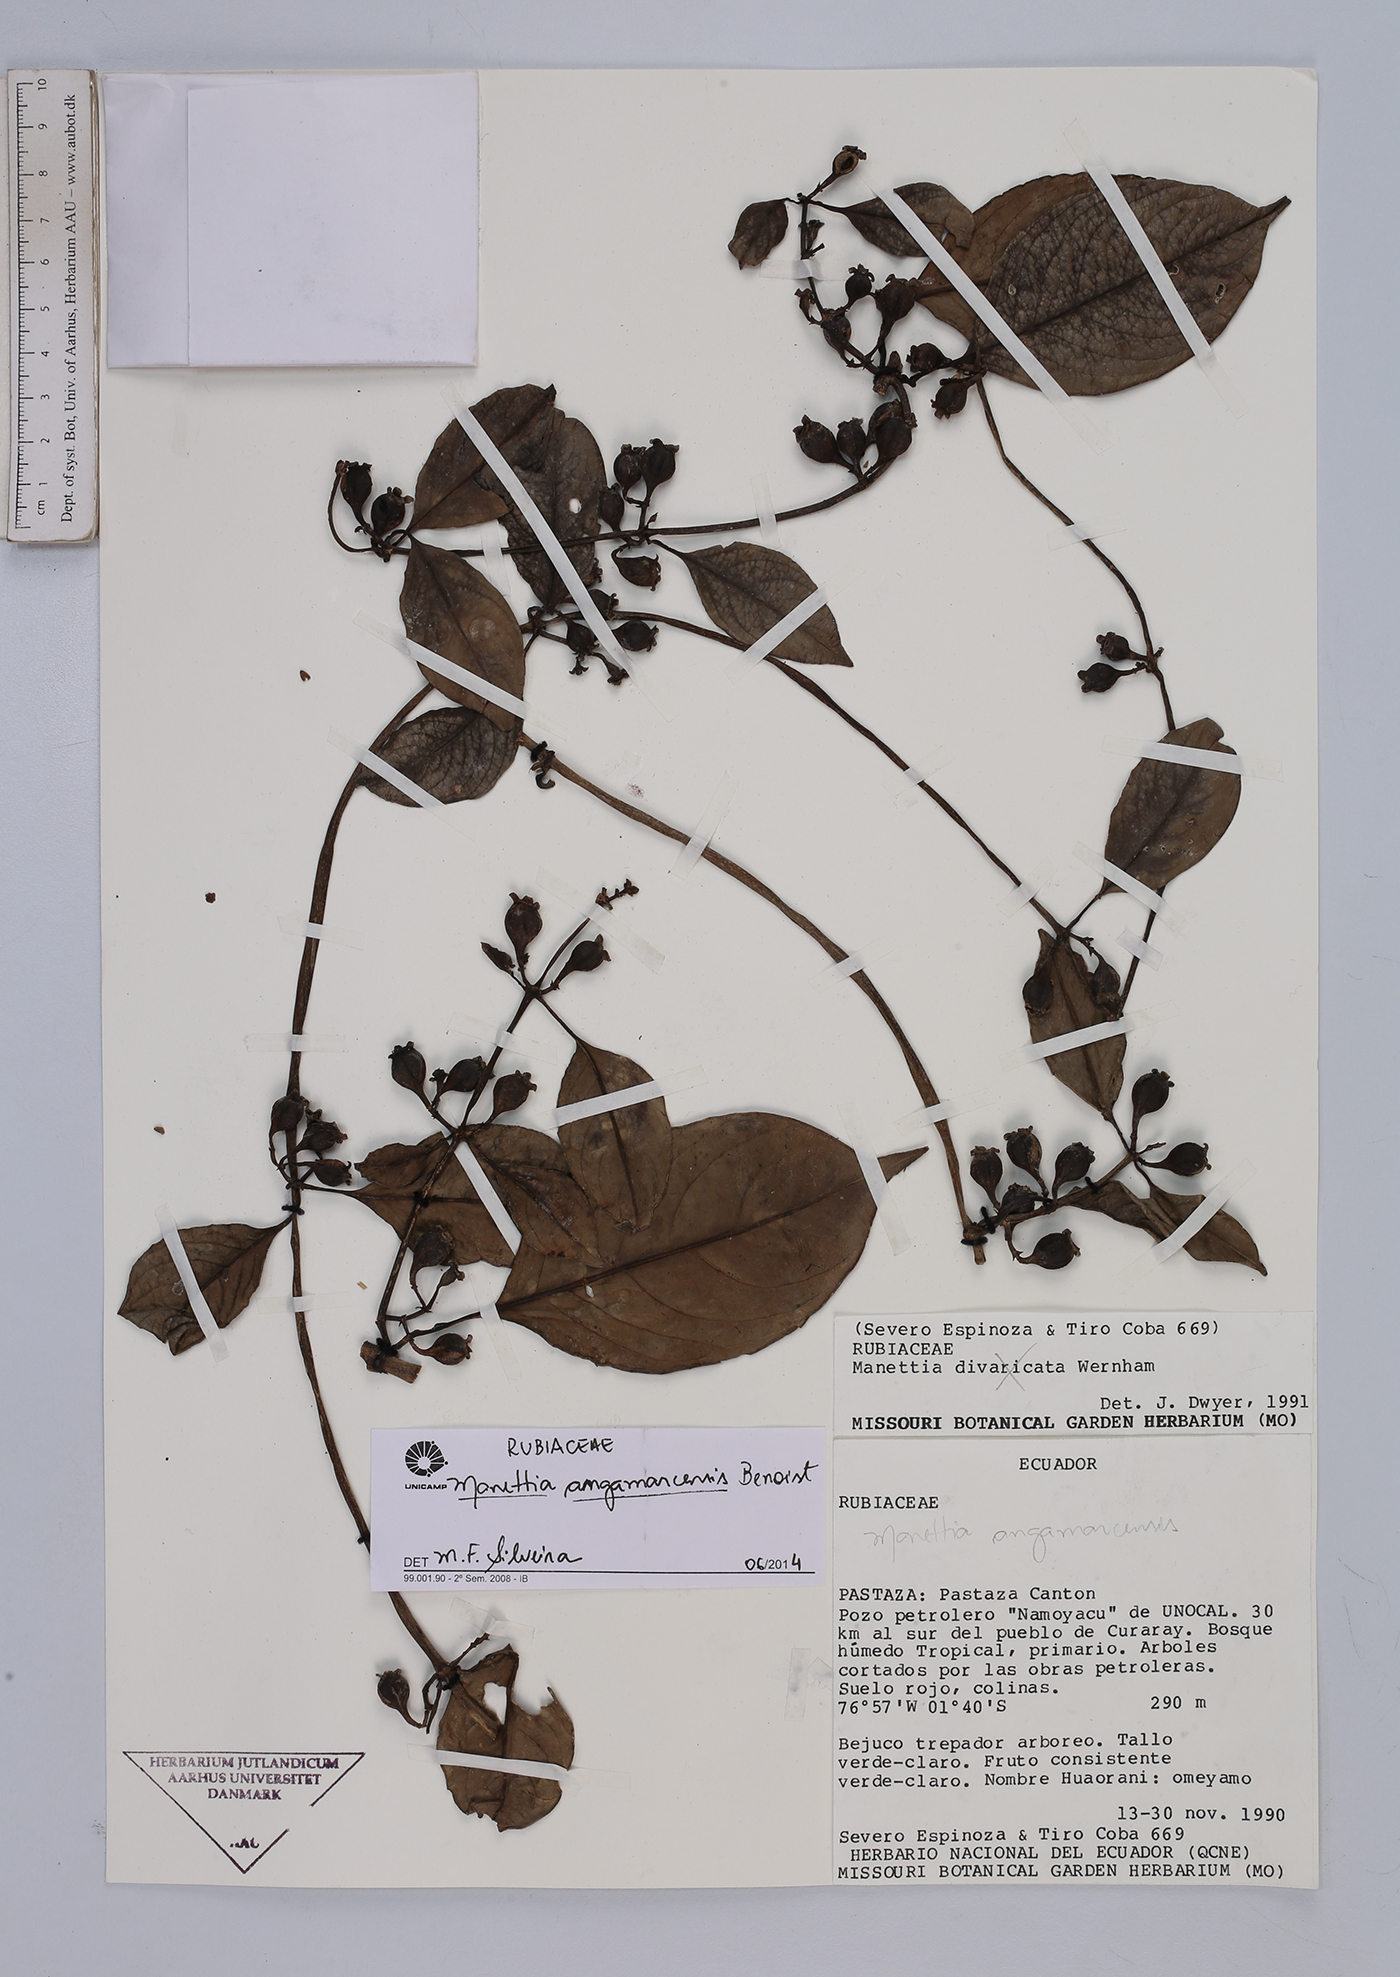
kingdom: Plantae
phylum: Tracheophyta
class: Magnoliopsida
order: Gentianales
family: Rubiaceae
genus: Manettia
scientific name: Manettia angamarcensis
